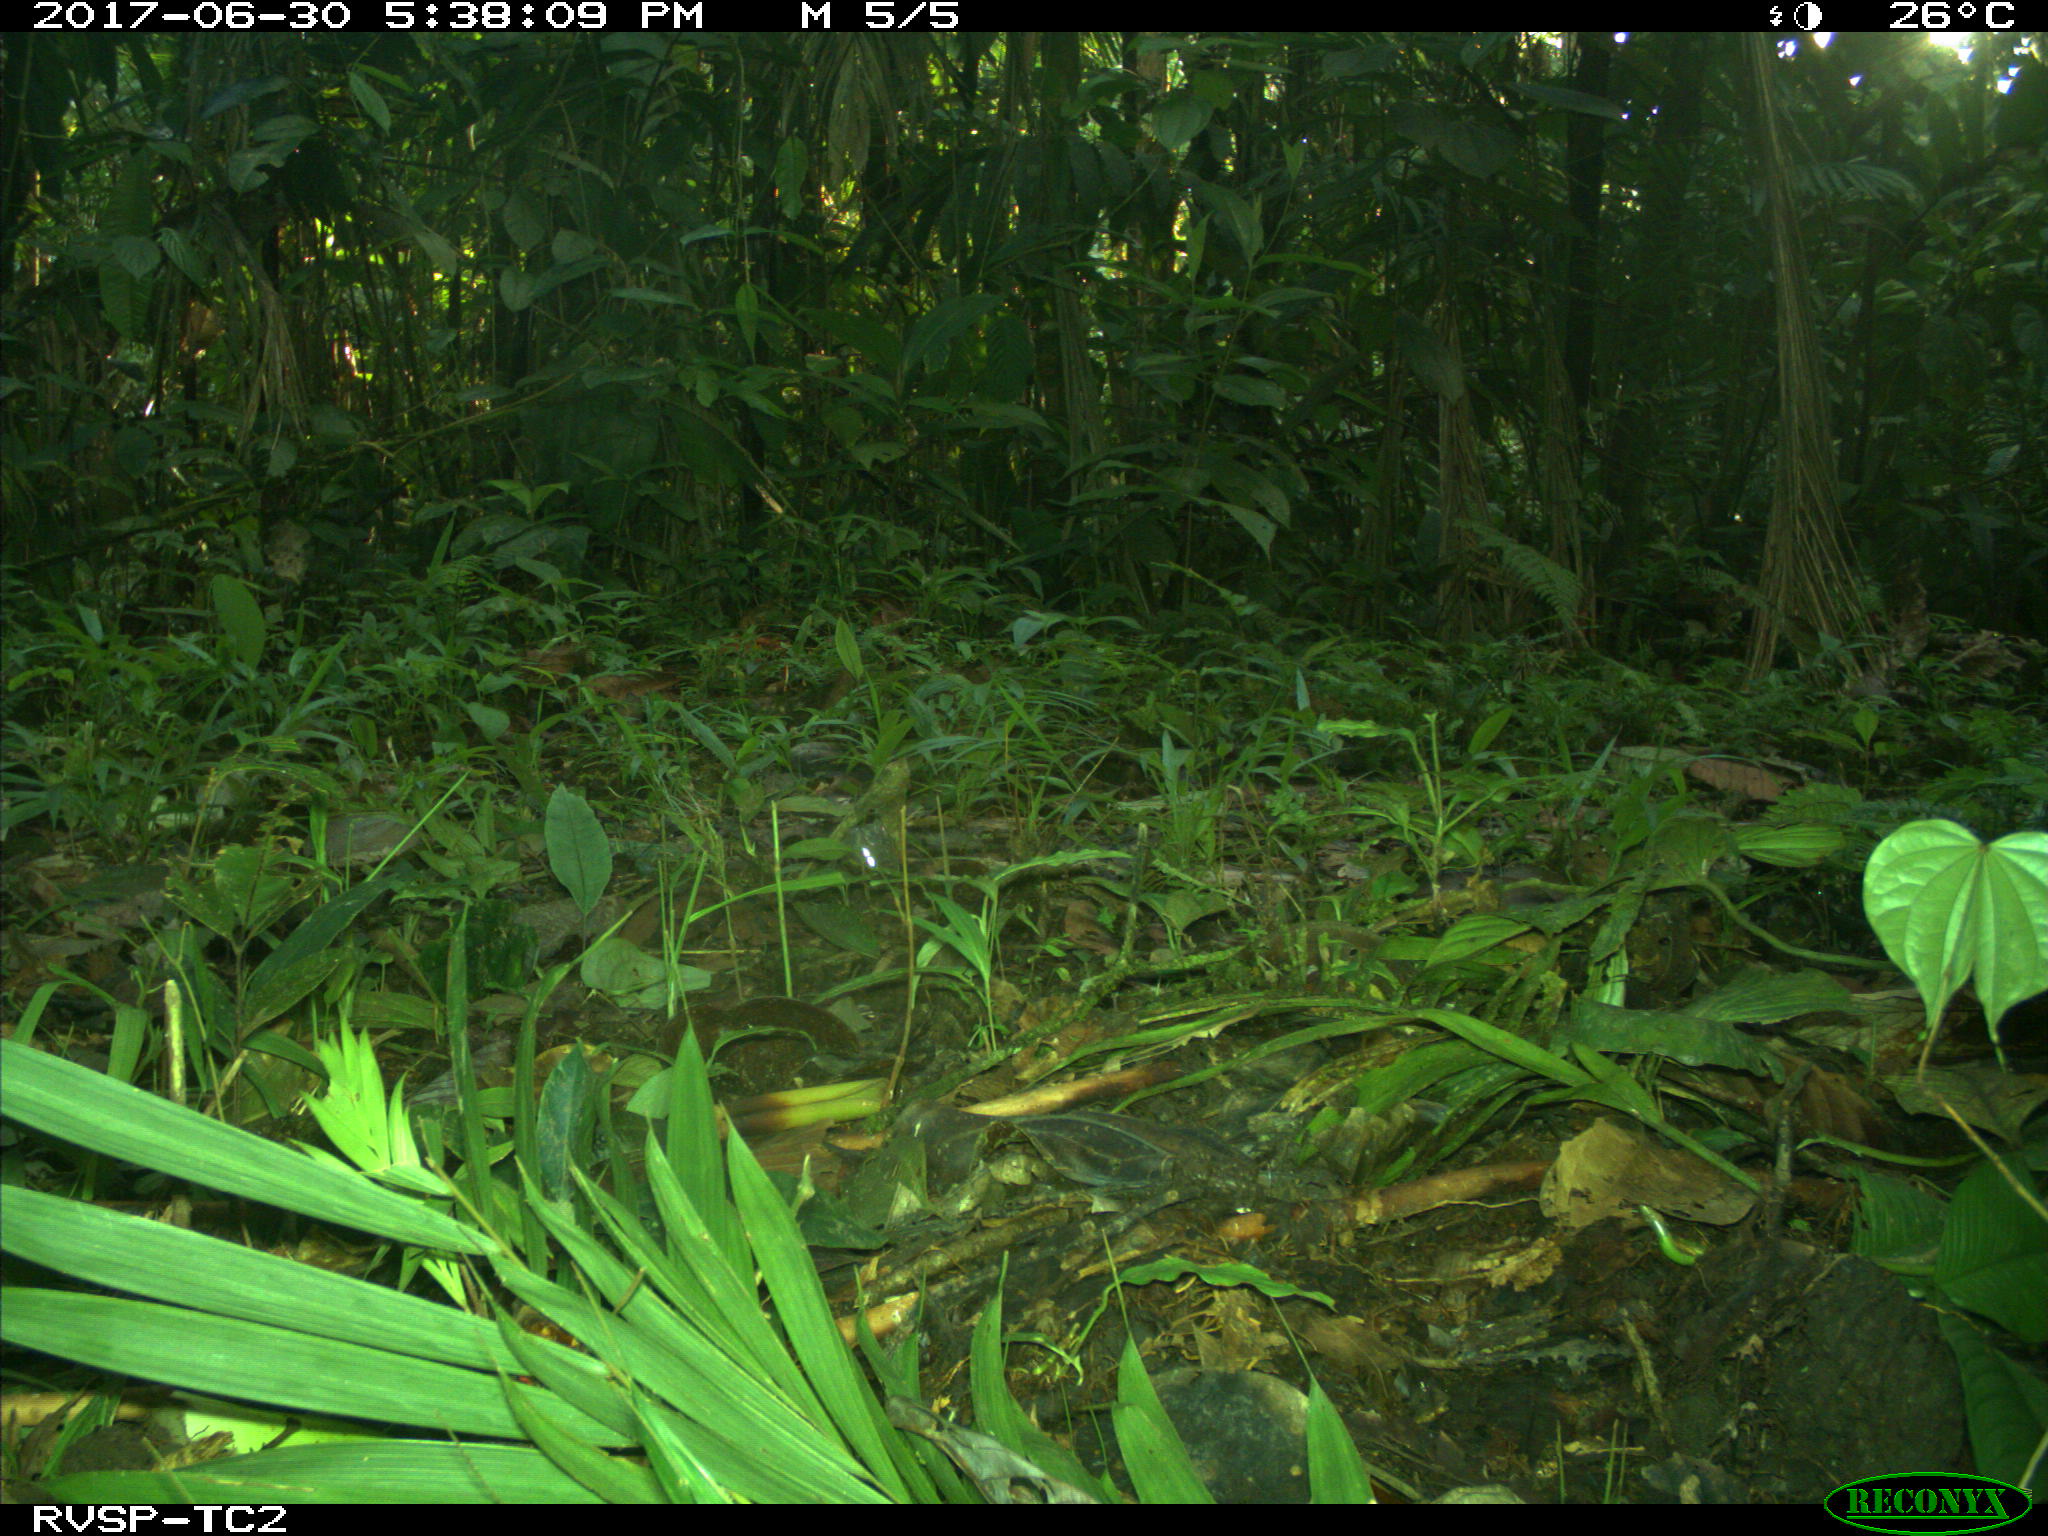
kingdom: Animalia
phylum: Chordata
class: Mammalia
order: Rodentia
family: Dasyproctidae
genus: Dasyprocta
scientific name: Dasyprocta punctata
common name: Central american agouti
